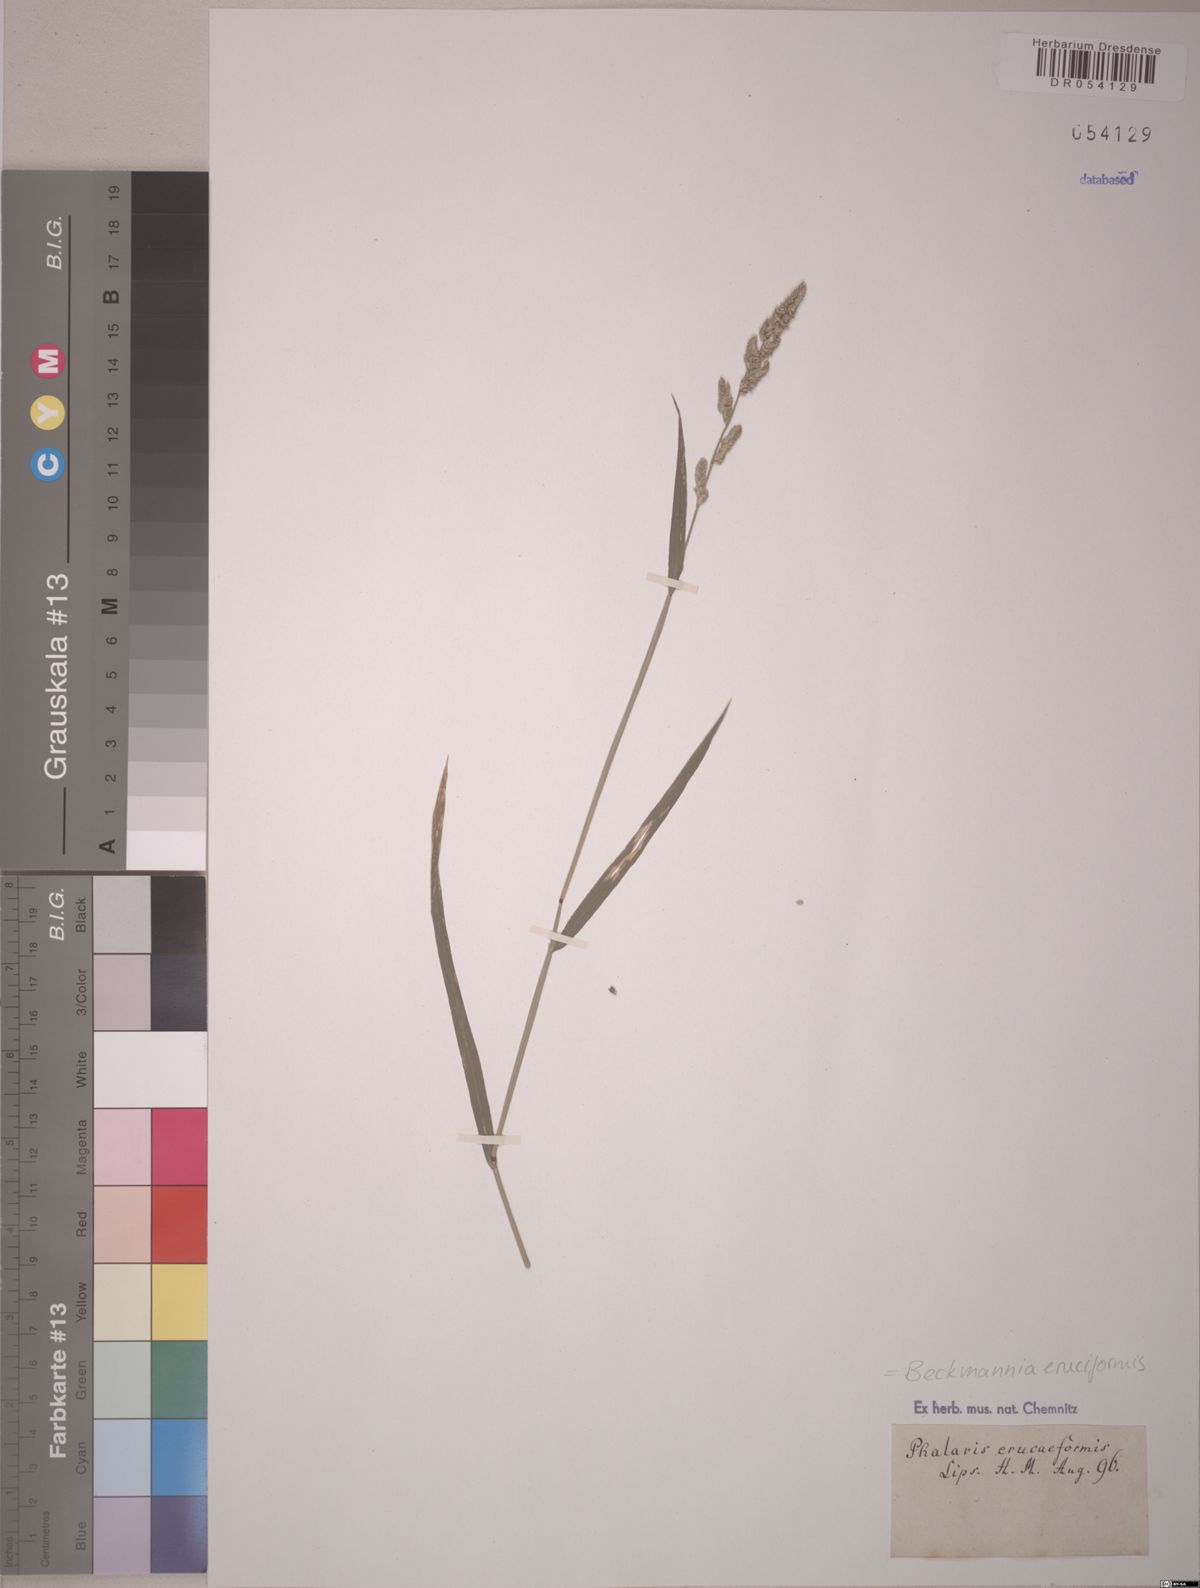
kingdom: Plantae
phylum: Tracheophyta
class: Liliopsida
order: Poales
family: Poaceae
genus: Beckmannia
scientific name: Beckmannia eruciformis
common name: European slough-grass
